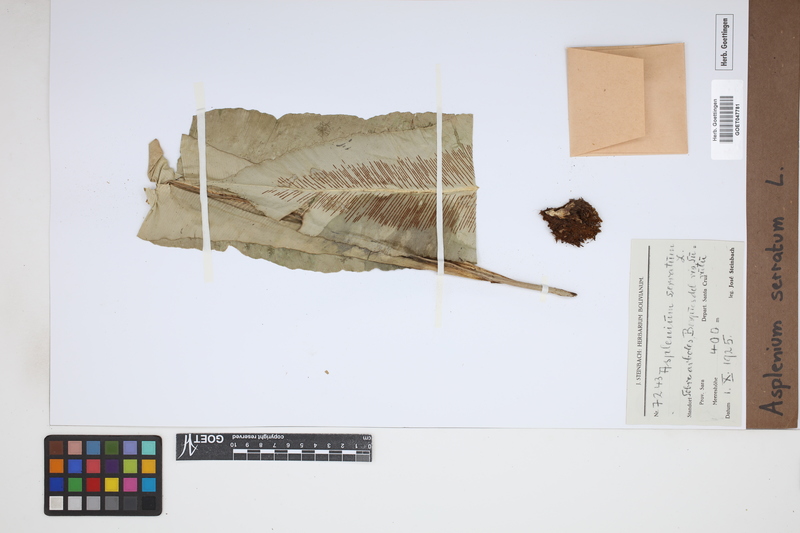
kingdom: Plantae
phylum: Tracheophyta
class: Polypodiopsida
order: Polypodiales
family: Aspleniaceae
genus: Asplenium
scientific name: Asplenium serratum
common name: Wild birdnest fern
